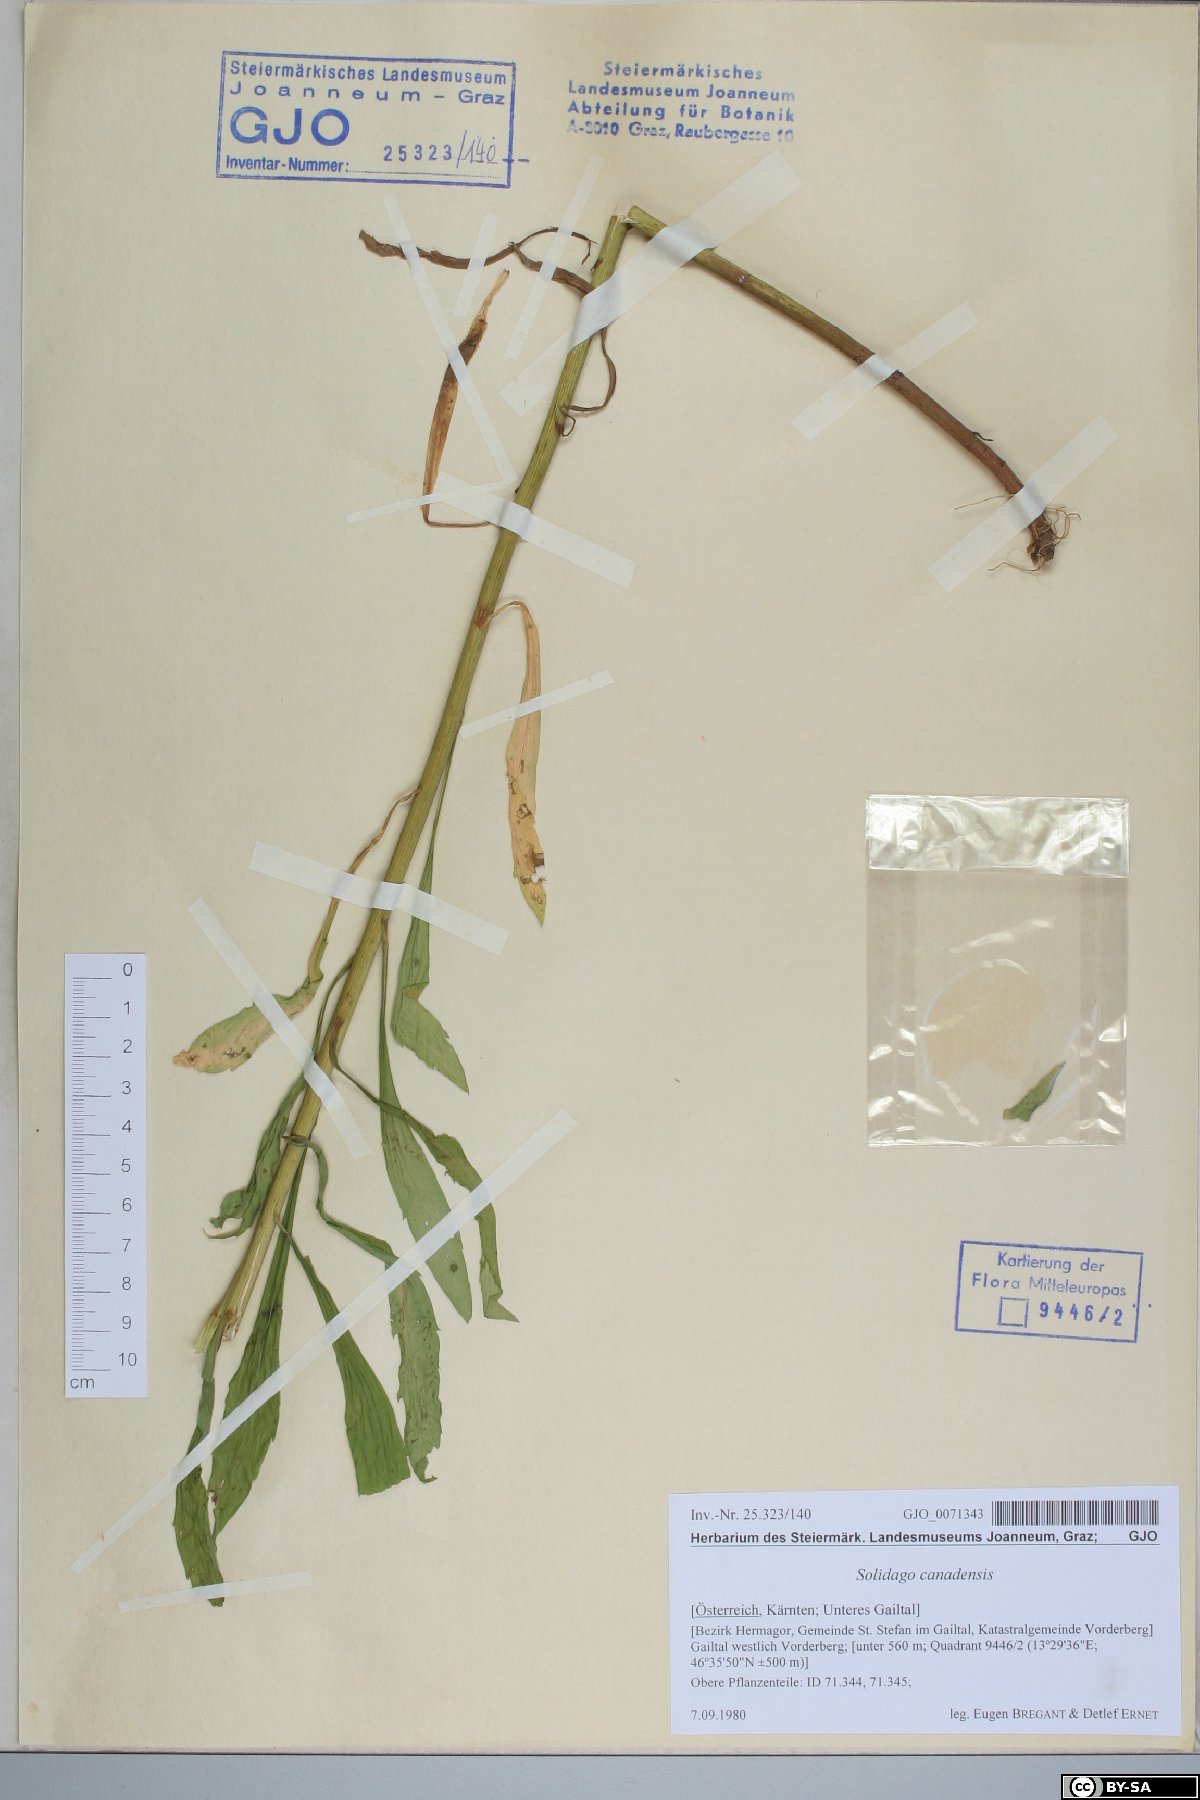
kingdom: Plantae
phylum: Tracheophyta
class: Magnoliopsida
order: Asterales
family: Asteraceae
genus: Solidago
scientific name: Solidago canadensis
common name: Canada goldenrod
